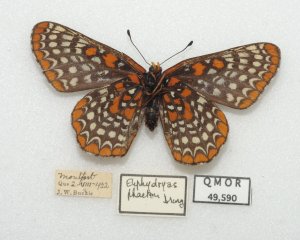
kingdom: Animalia
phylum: Arthropoda
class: Insecta
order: Lepidoptera
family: Nymphalidae
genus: Euphydryas
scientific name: Euphydryas phaeton
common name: Baltimore Checkerspot
